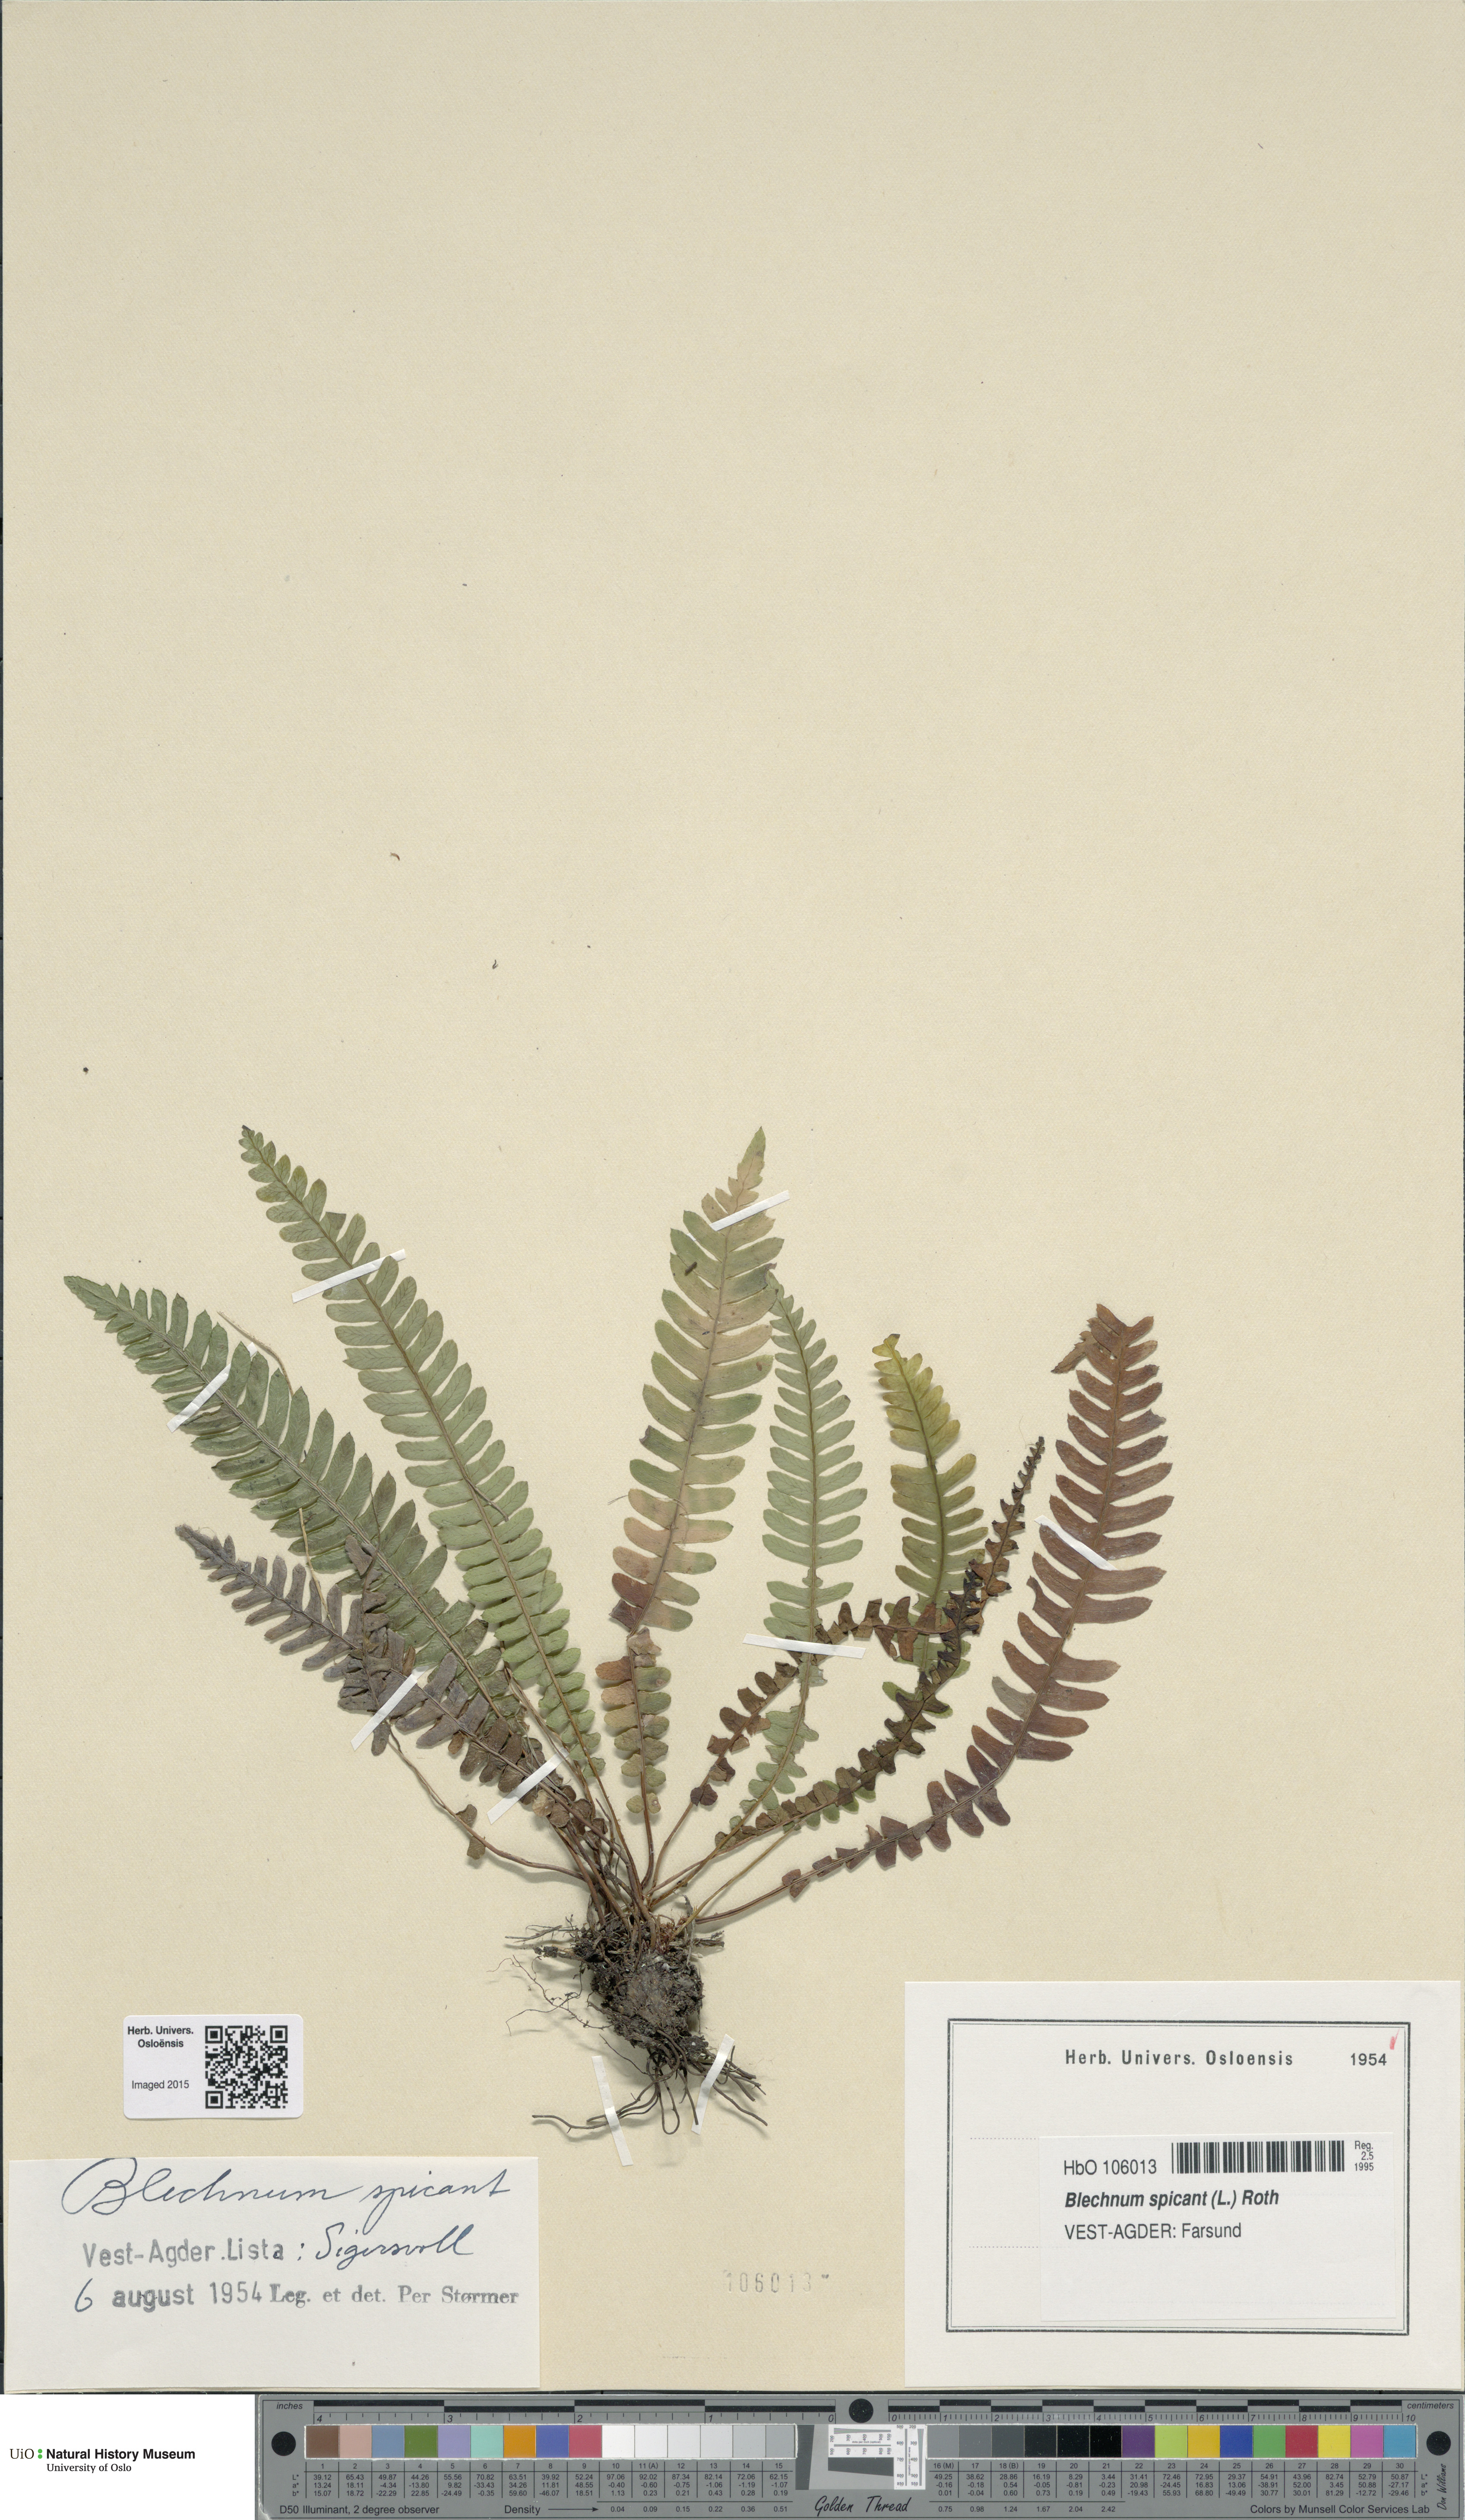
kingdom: Plantae
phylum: Tracheophyta
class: Polypodiopsida
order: Polypodiales
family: Blechnaceae
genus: Struthiopteris
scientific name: Struthiopteris spicant
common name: Deer fern
